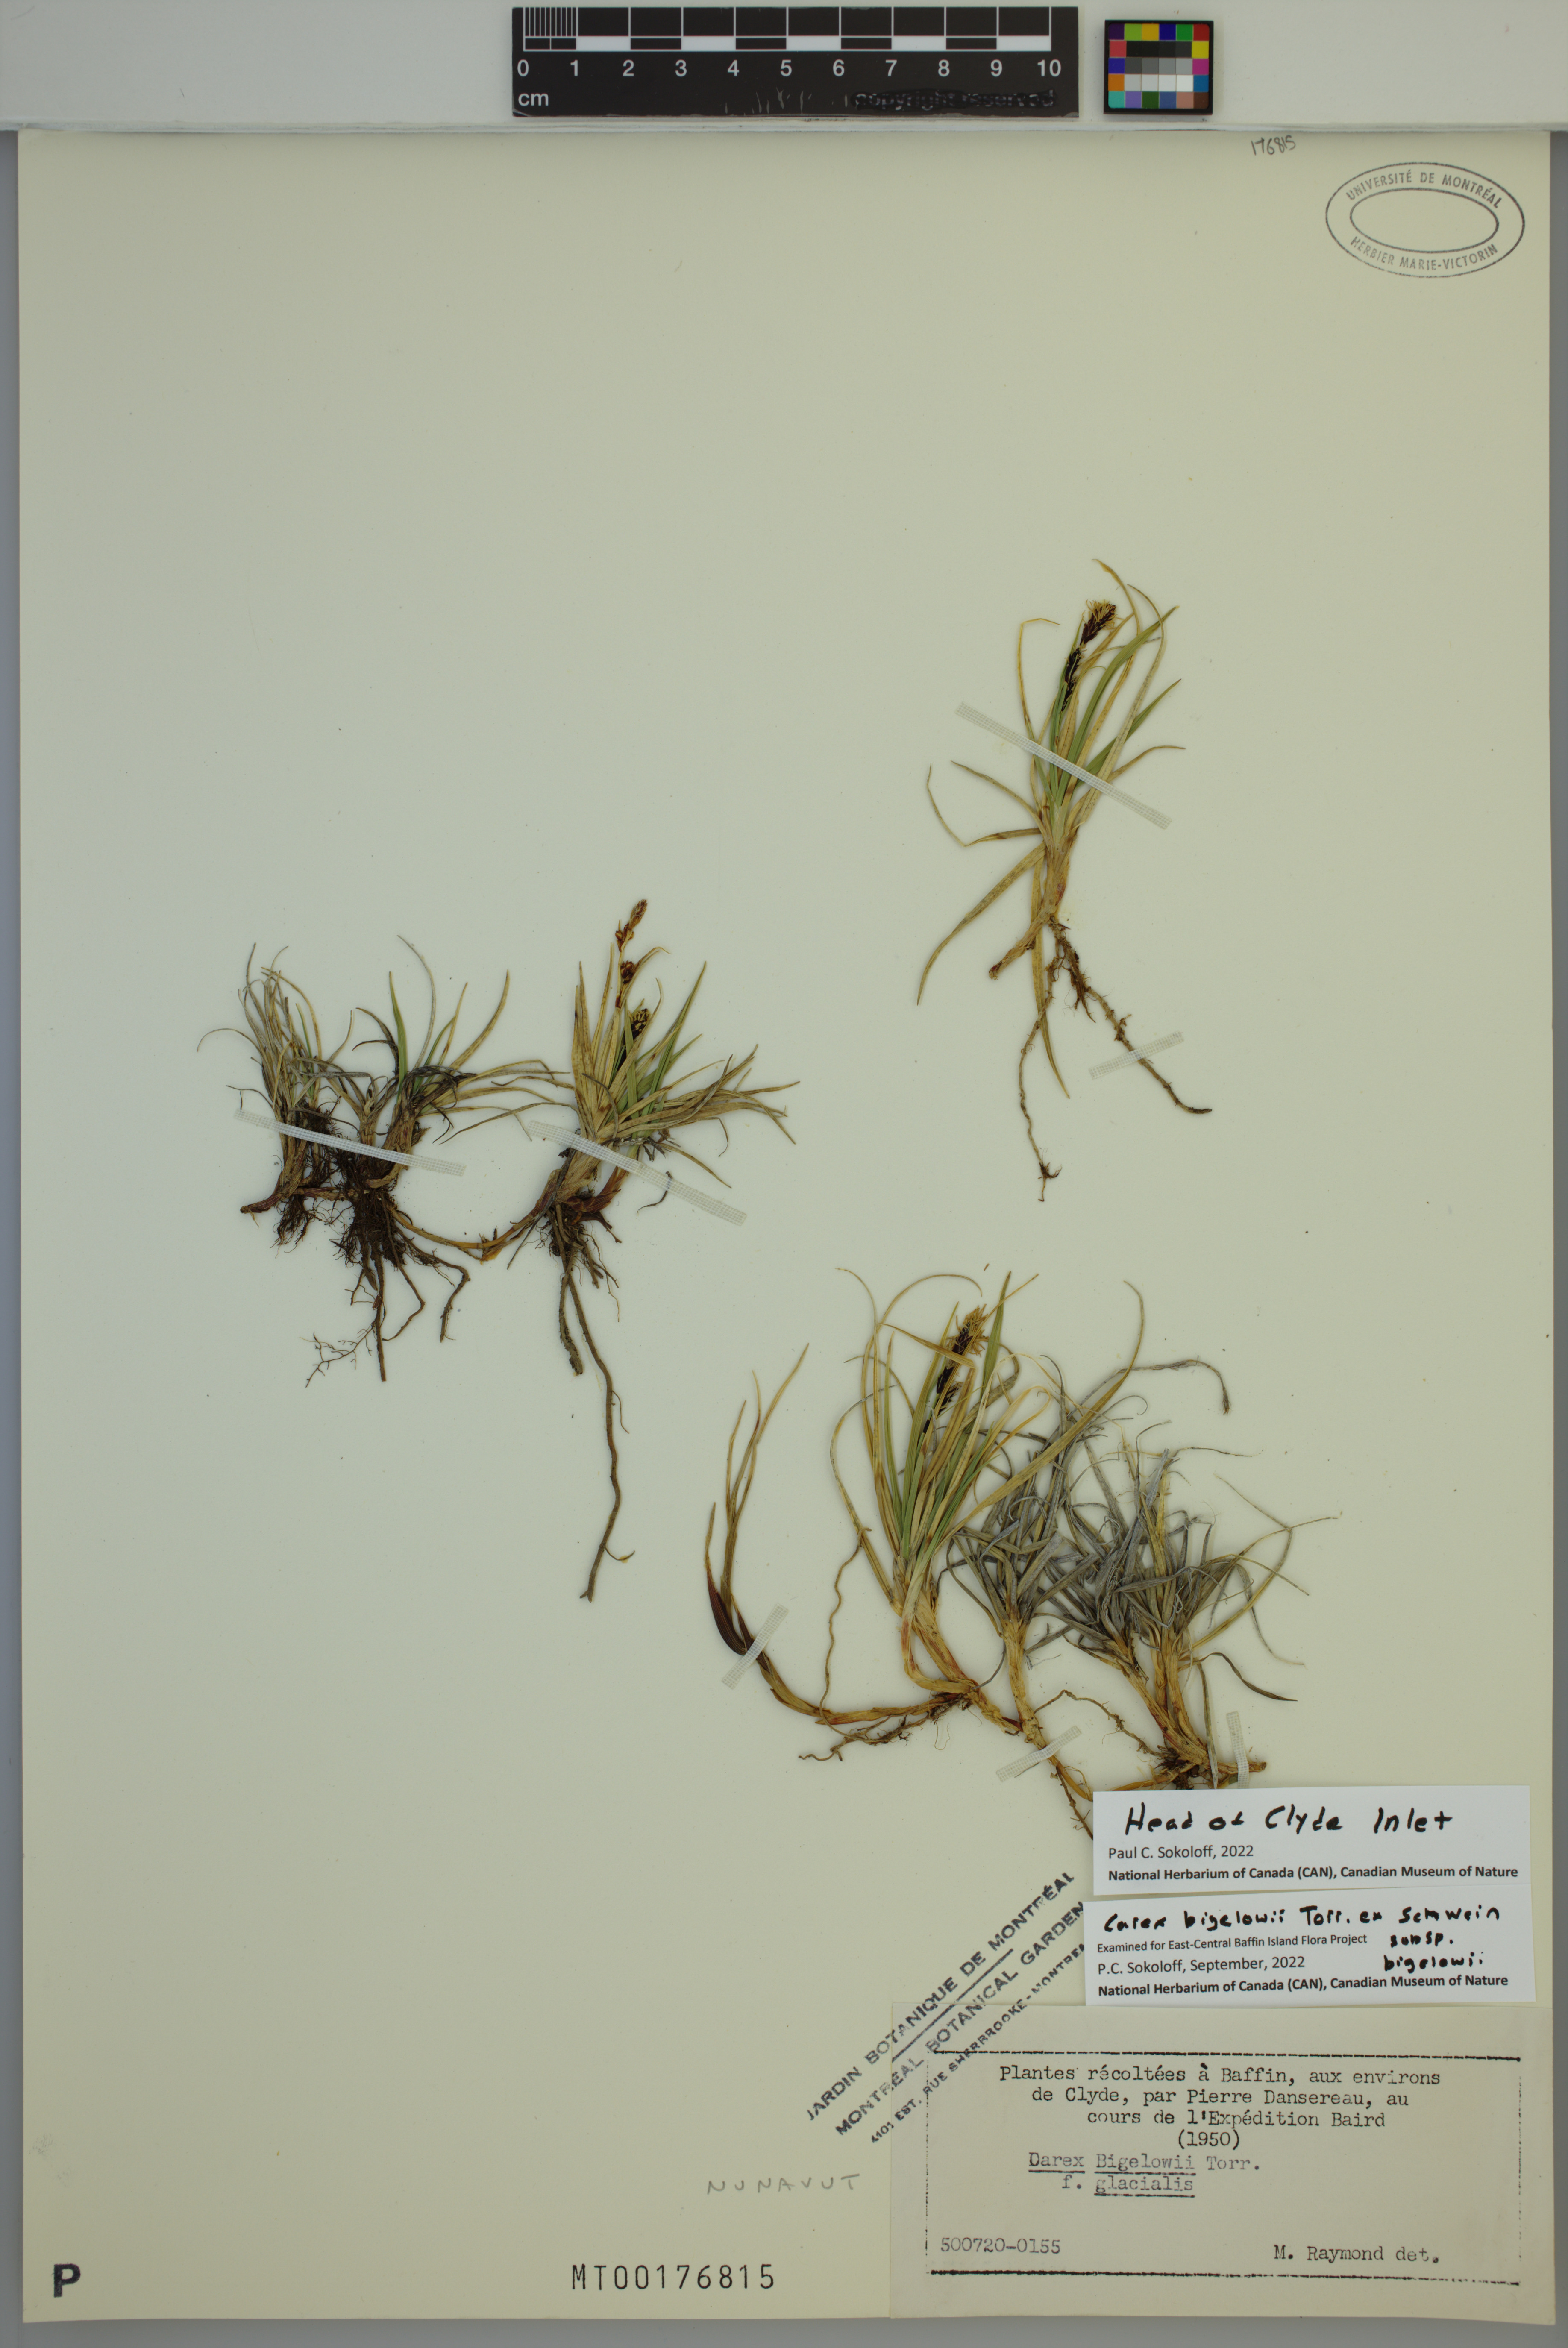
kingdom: Plantae
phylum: Tracheophyta
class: Liliopsida
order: Poales
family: Cyperaceae
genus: Carex
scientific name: Carex bigelowii
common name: Stiff sedge
